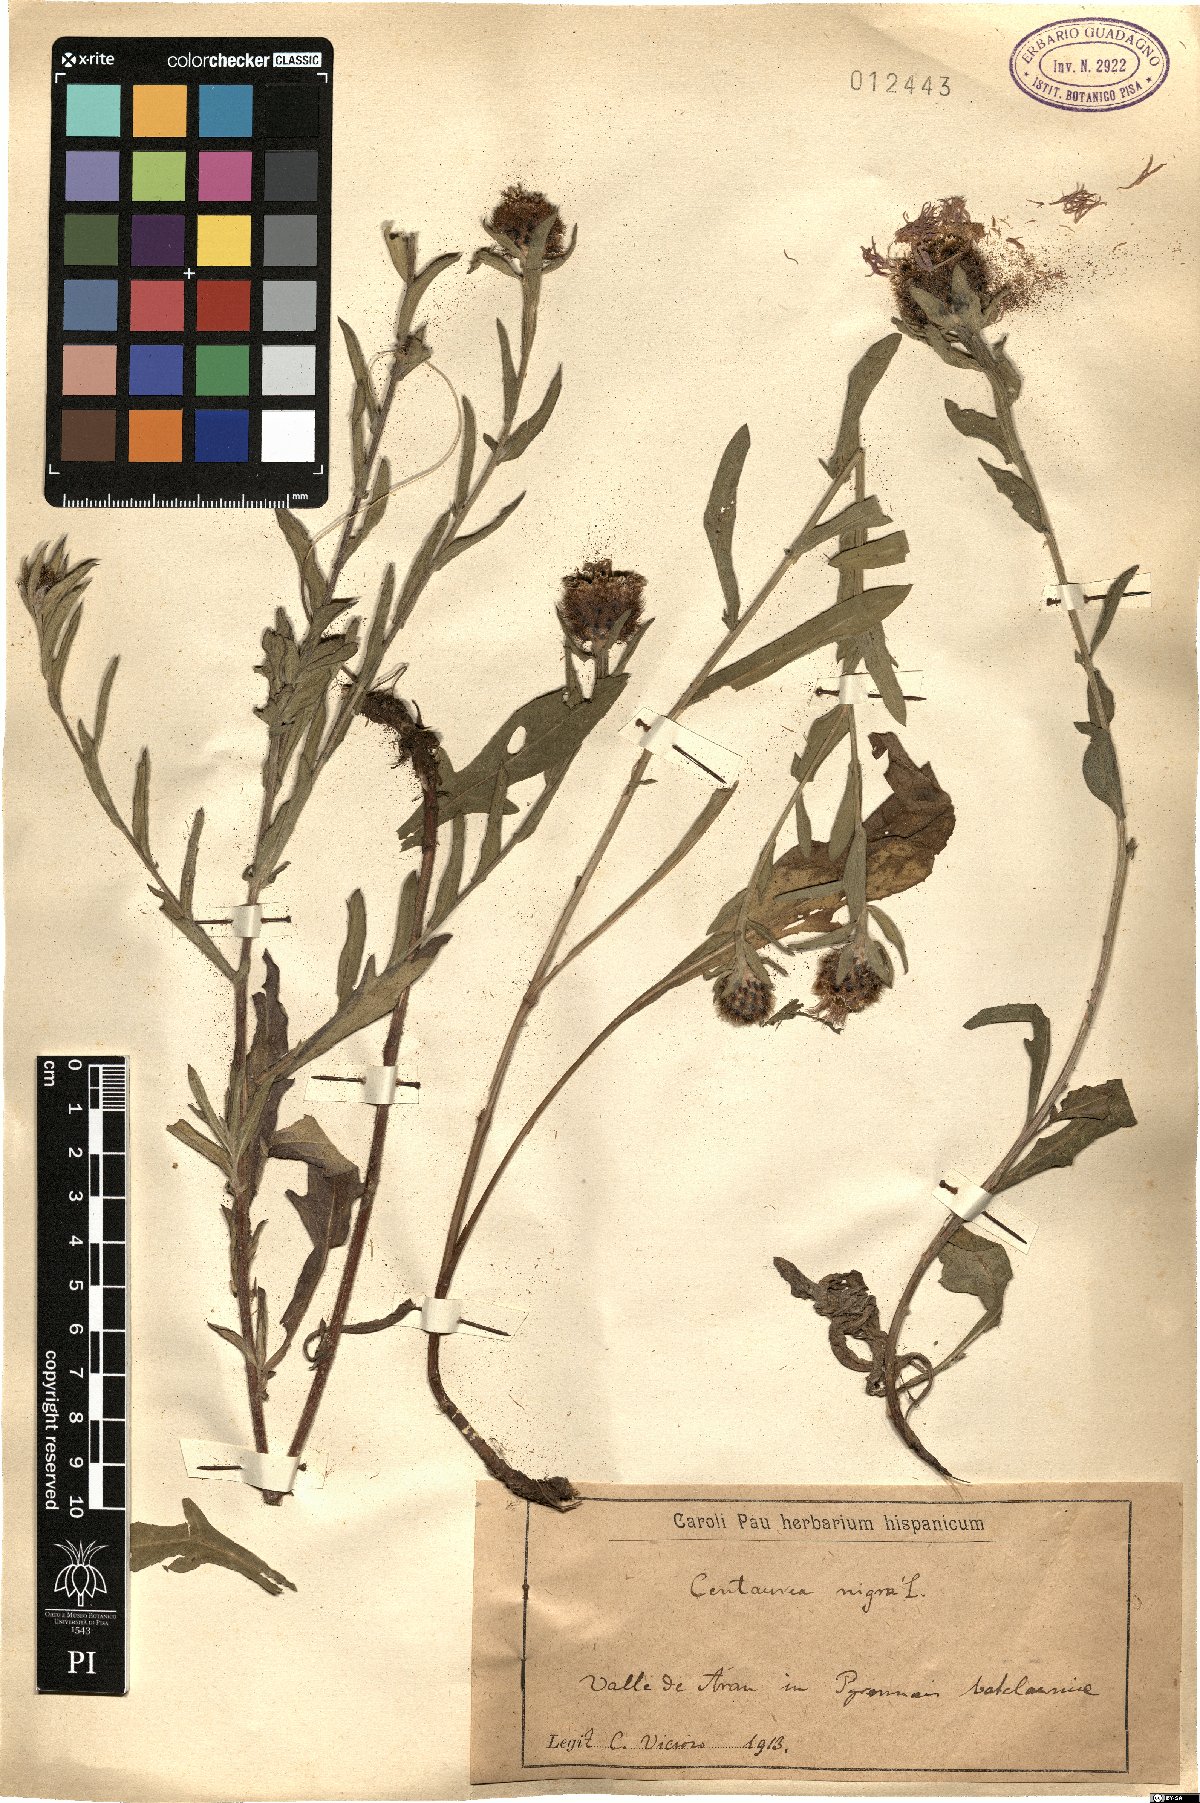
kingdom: Plantae
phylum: Tracheophyta
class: Magnoliopsida
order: Asterales
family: Asteraceae
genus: Centaurea
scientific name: Centaurea nigra
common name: Lesser knapweed
